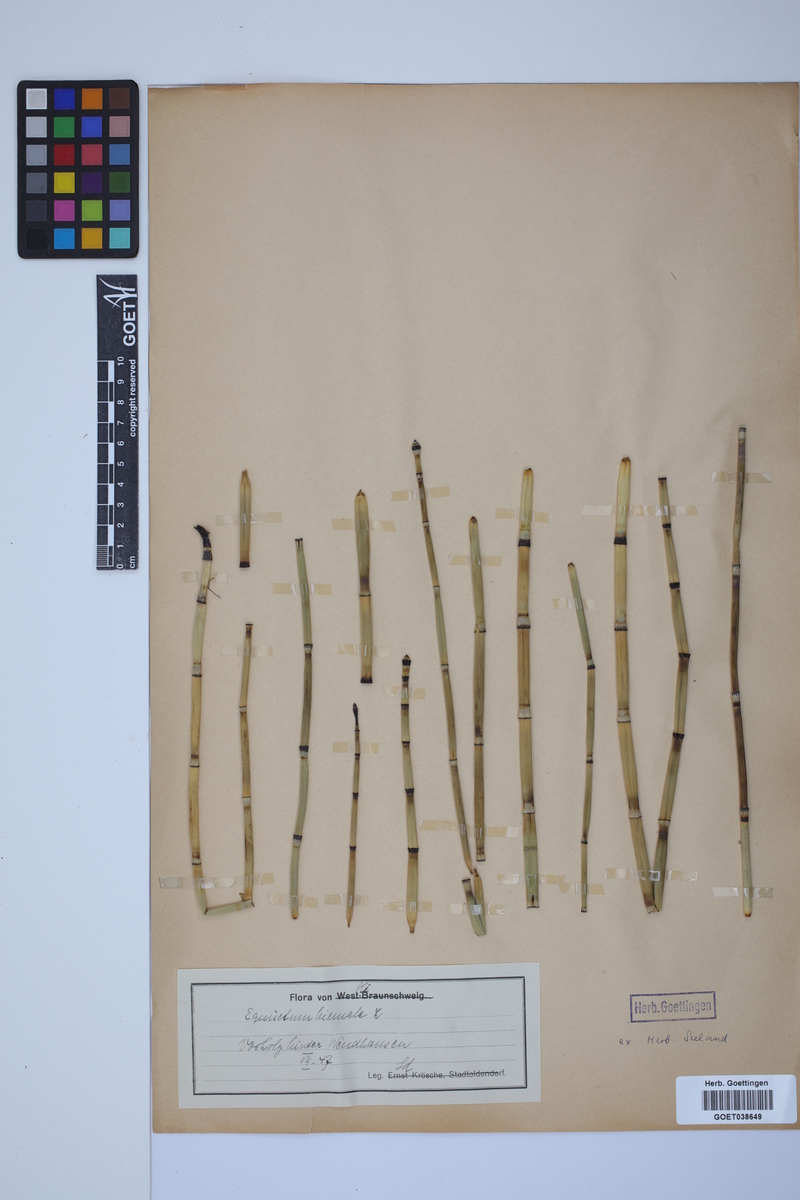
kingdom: Plantae
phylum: Tracheophyta
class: Polypodiopsida
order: Equisetales
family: Equisetaceae
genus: Equisetum
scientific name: Equisetum hyemale
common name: Rough horsetail
